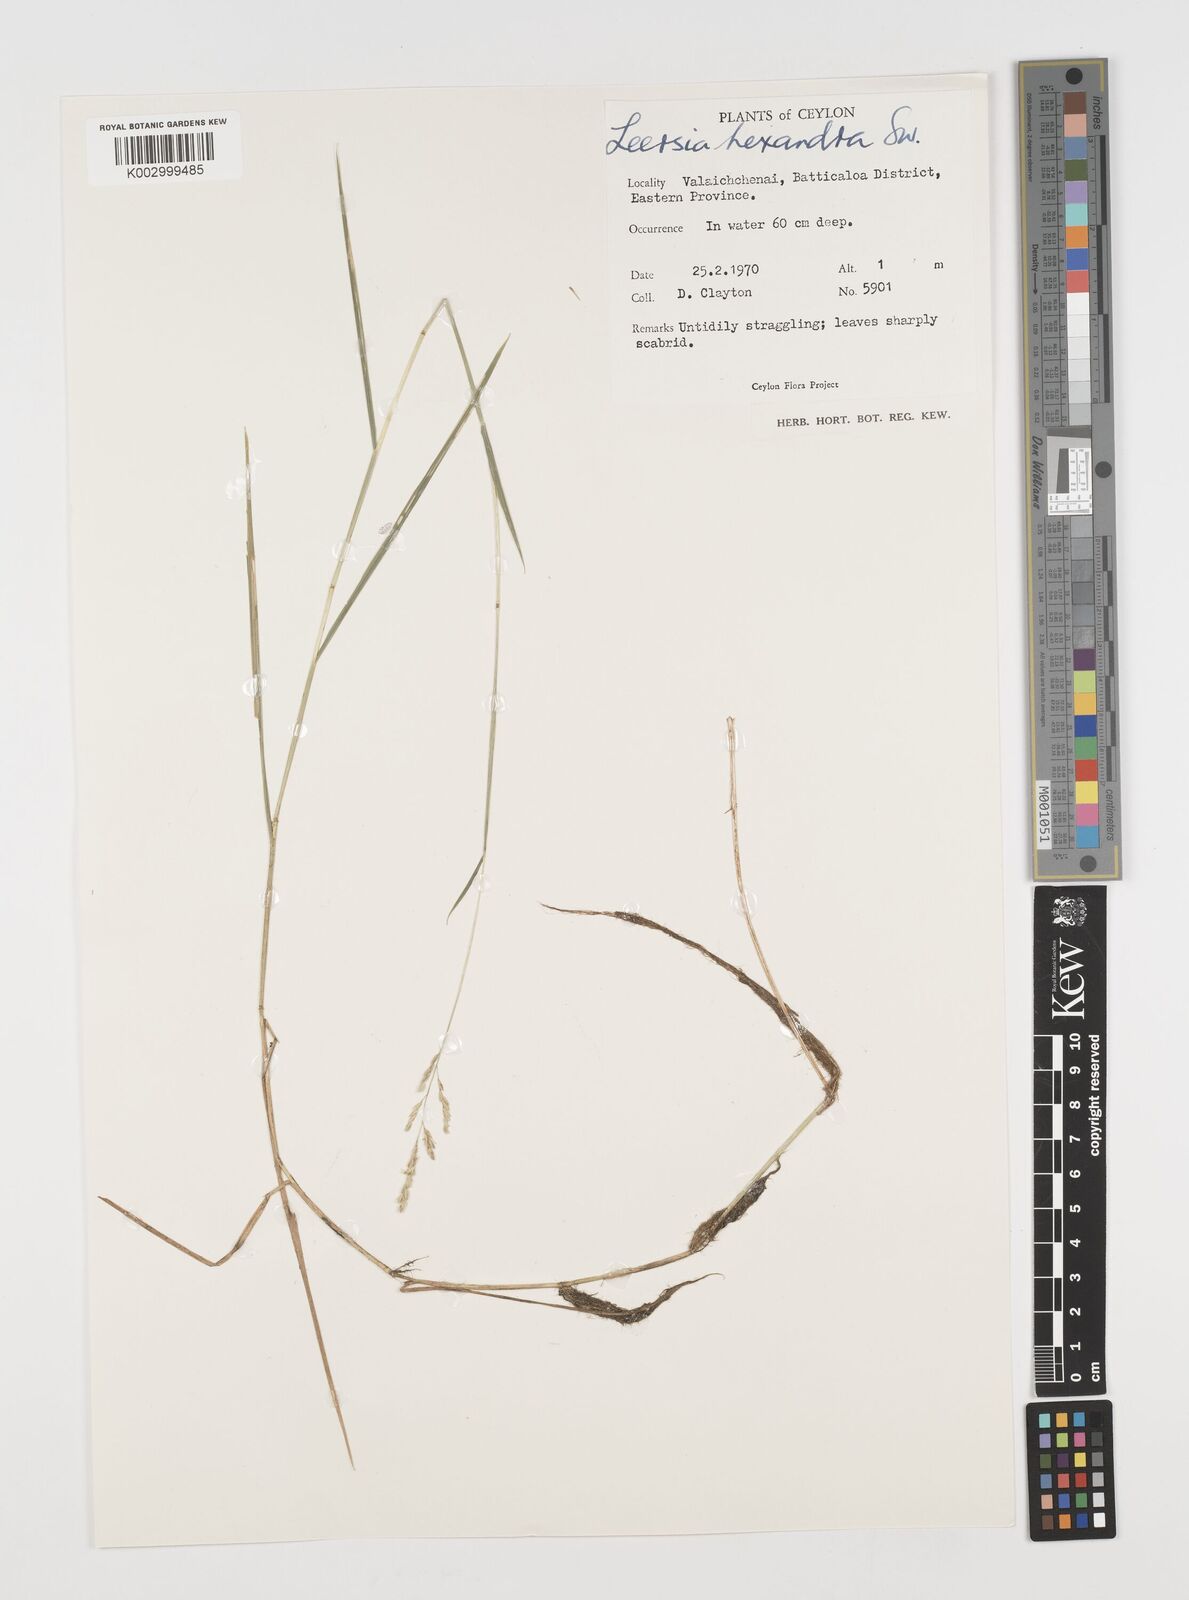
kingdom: Plantae
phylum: Tracheophyta
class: Liliopsida
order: Poales
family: Poaceae
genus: Leersia
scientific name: Leersia hexandra
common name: Southern cut grass
